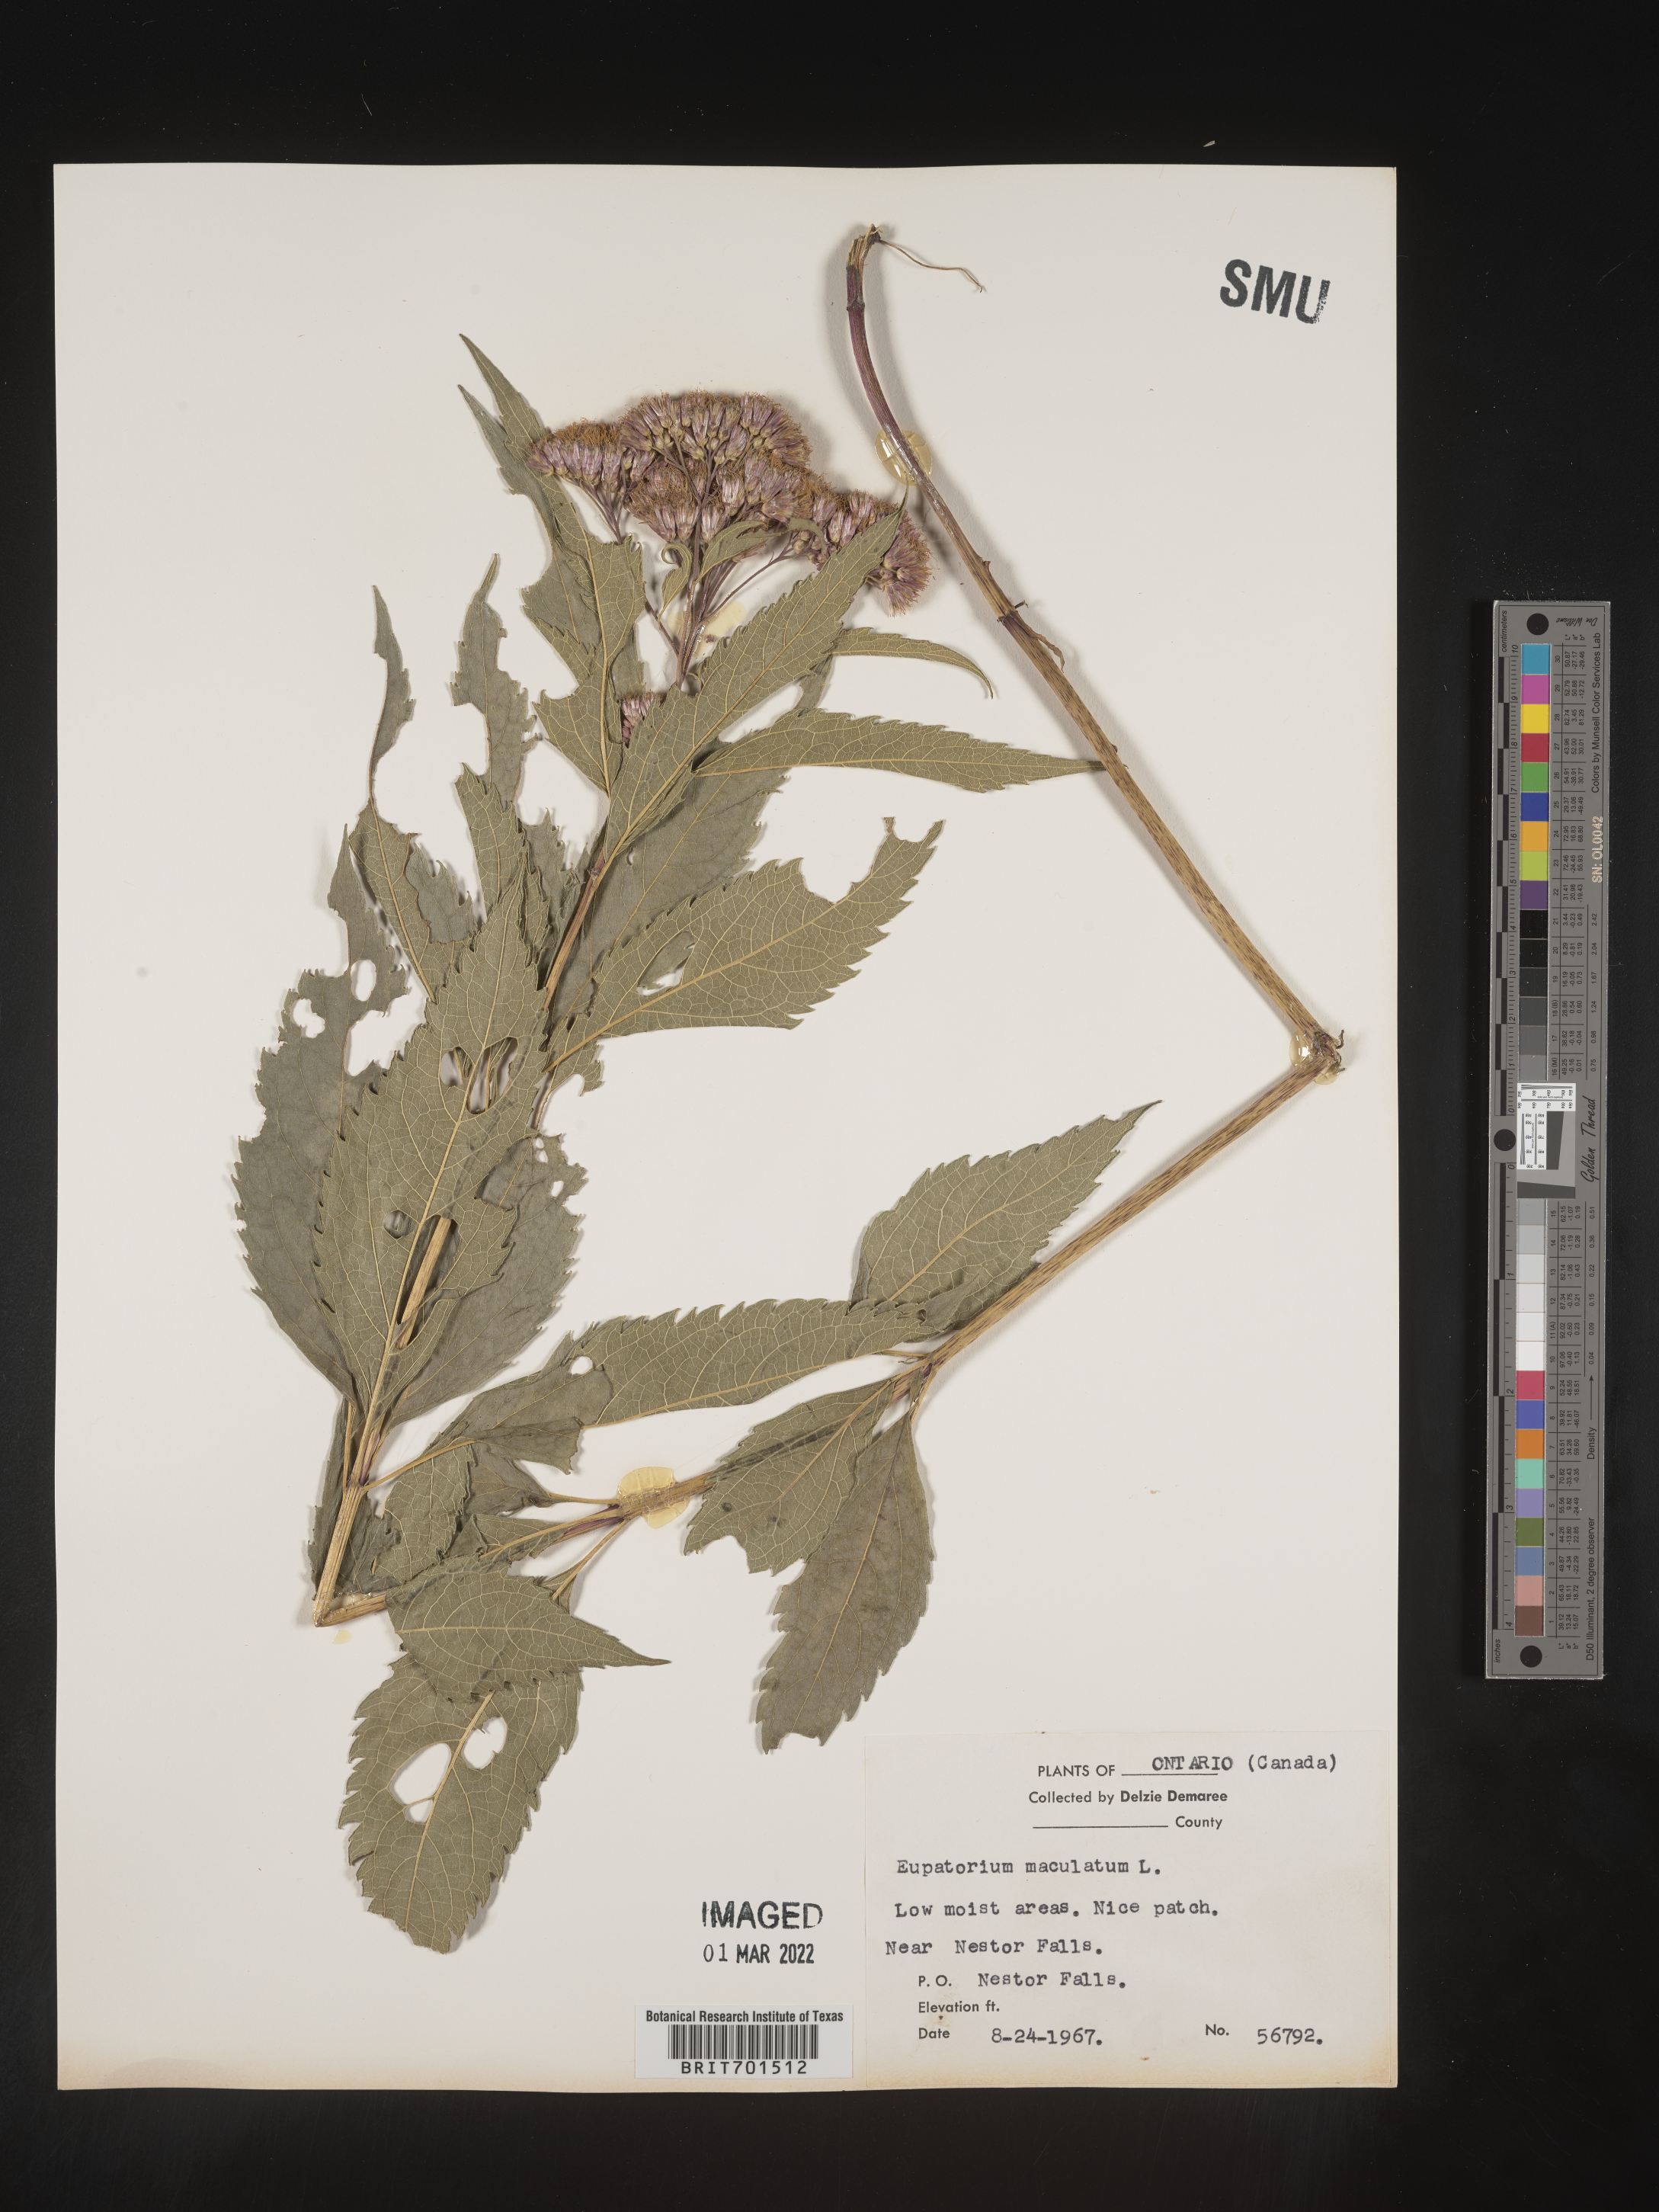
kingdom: Plantae
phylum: Tracheophyta
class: Magnoliopsida
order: Asterales
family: Asteraceae
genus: Eutrochium
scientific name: Eutrochium maculatum
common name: Spotted joe pye weed
